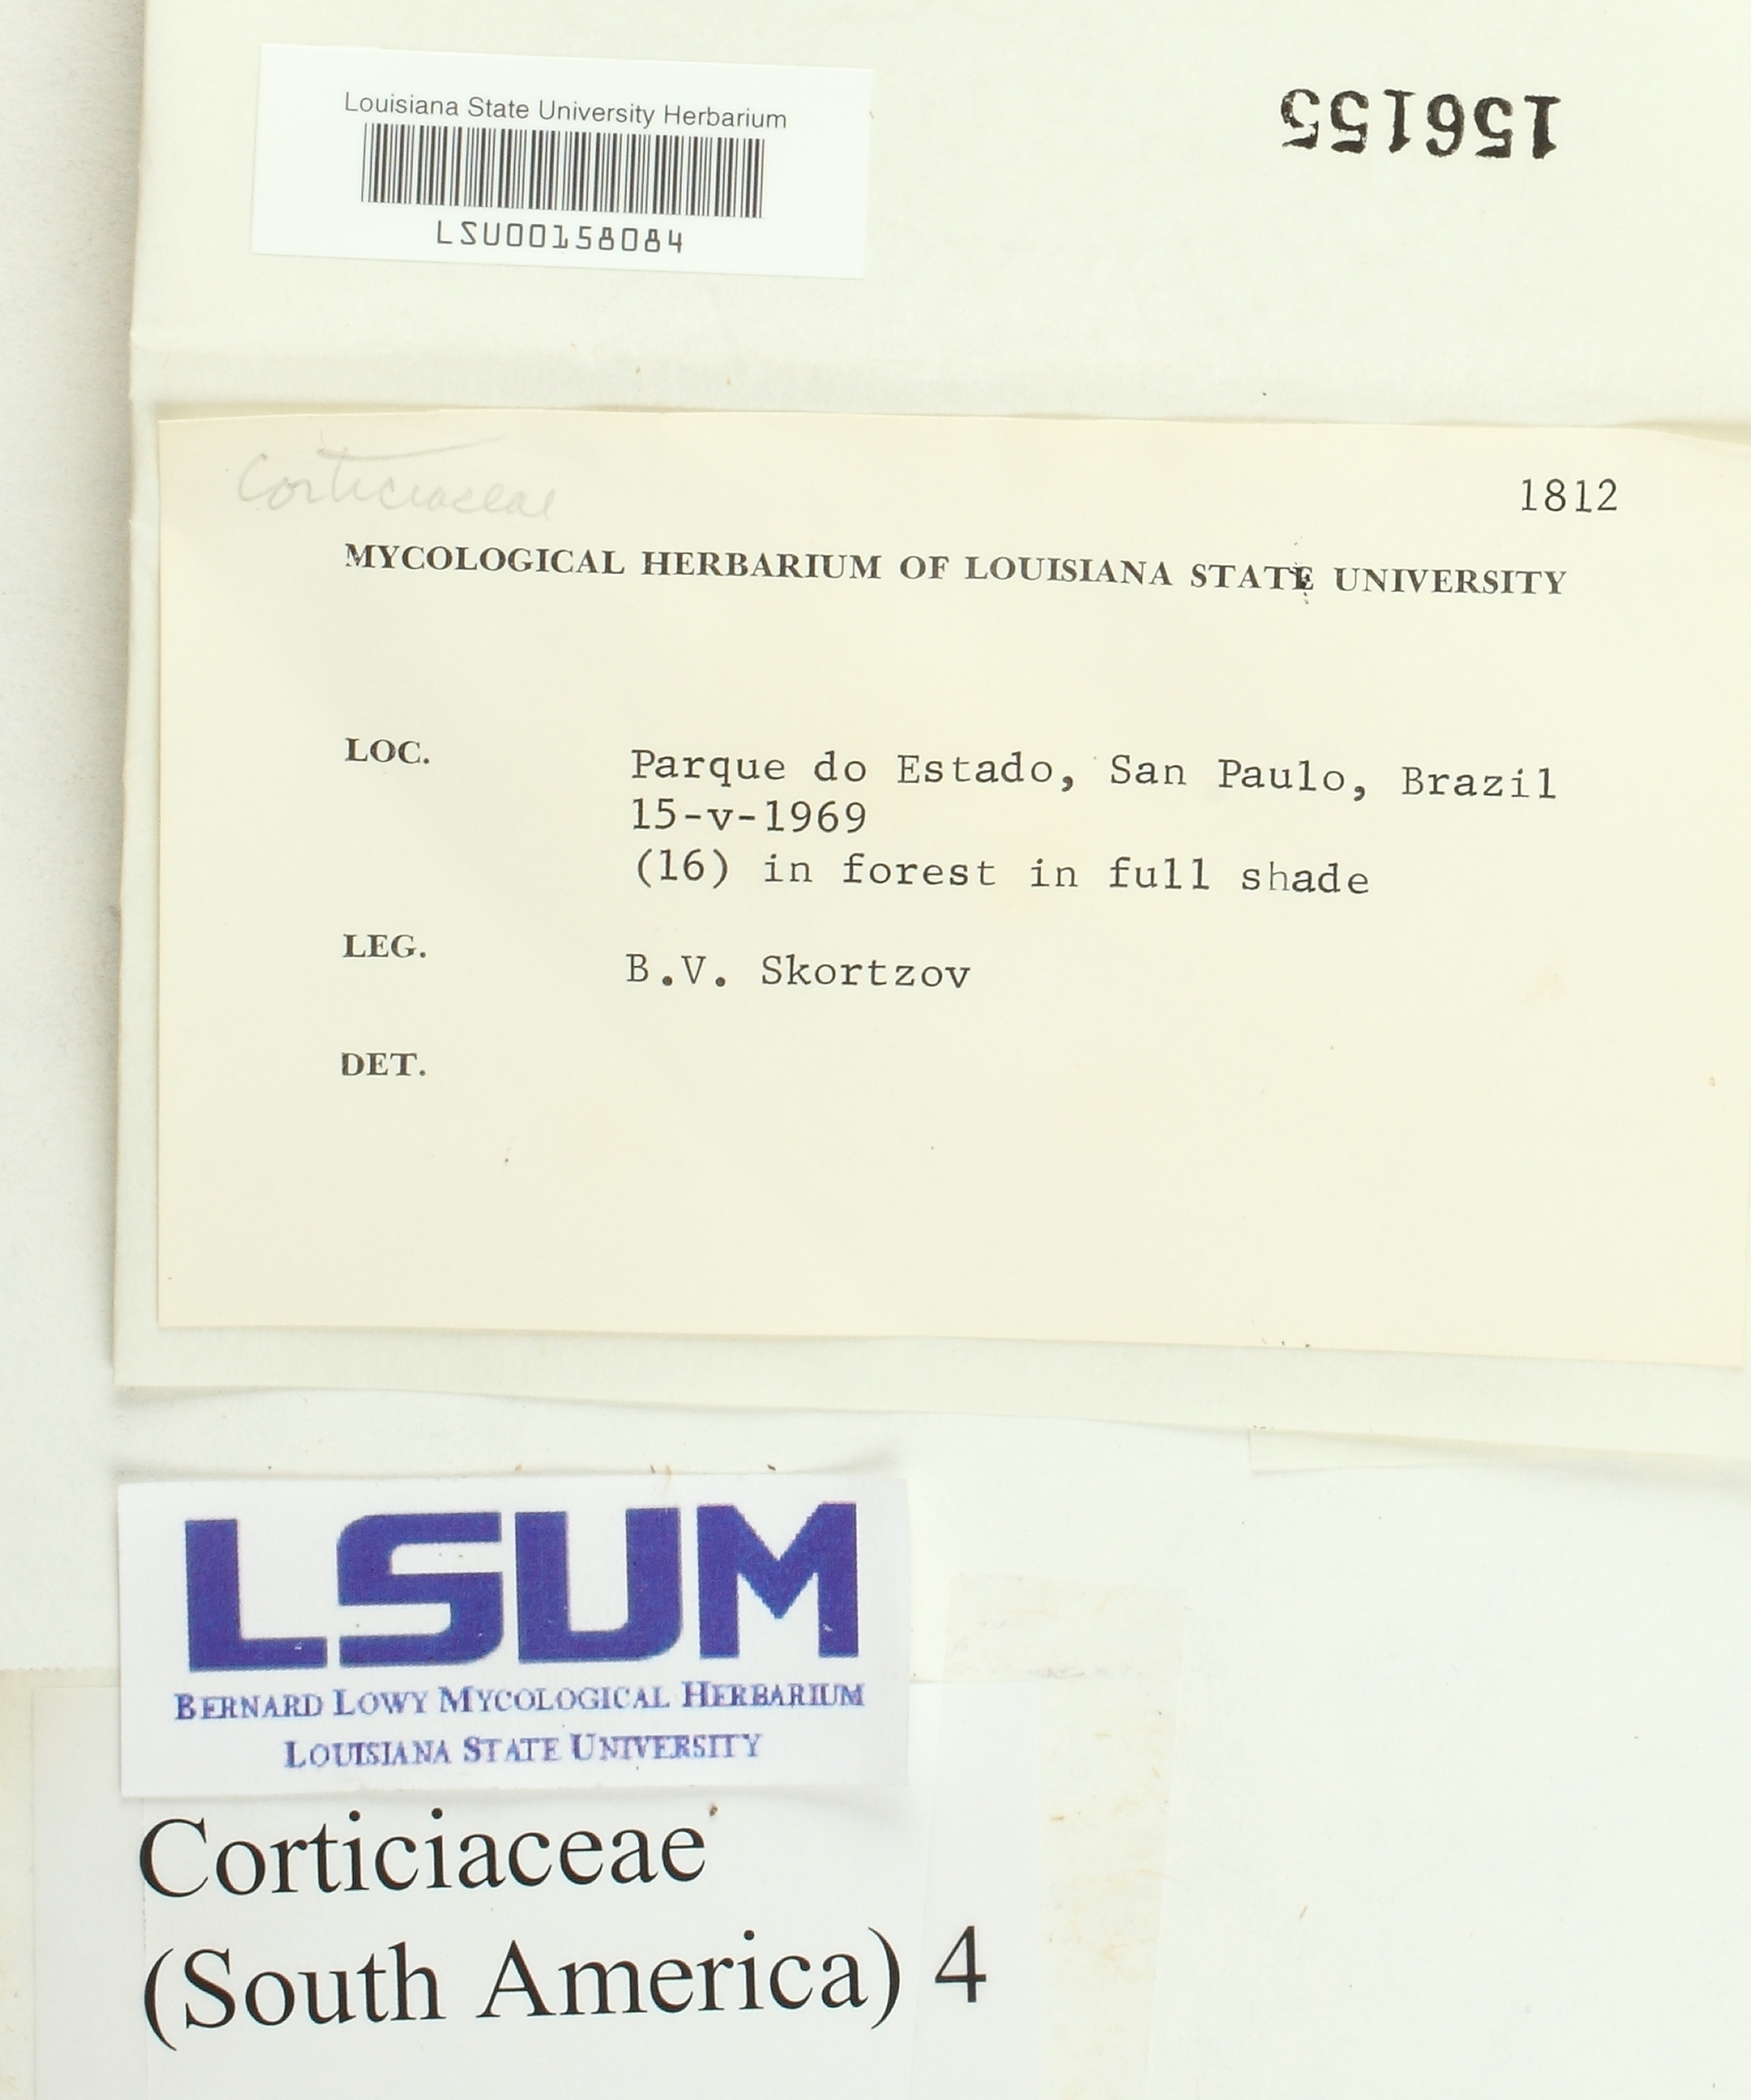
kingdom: Fungi
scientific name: Fungi
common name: Fungi
